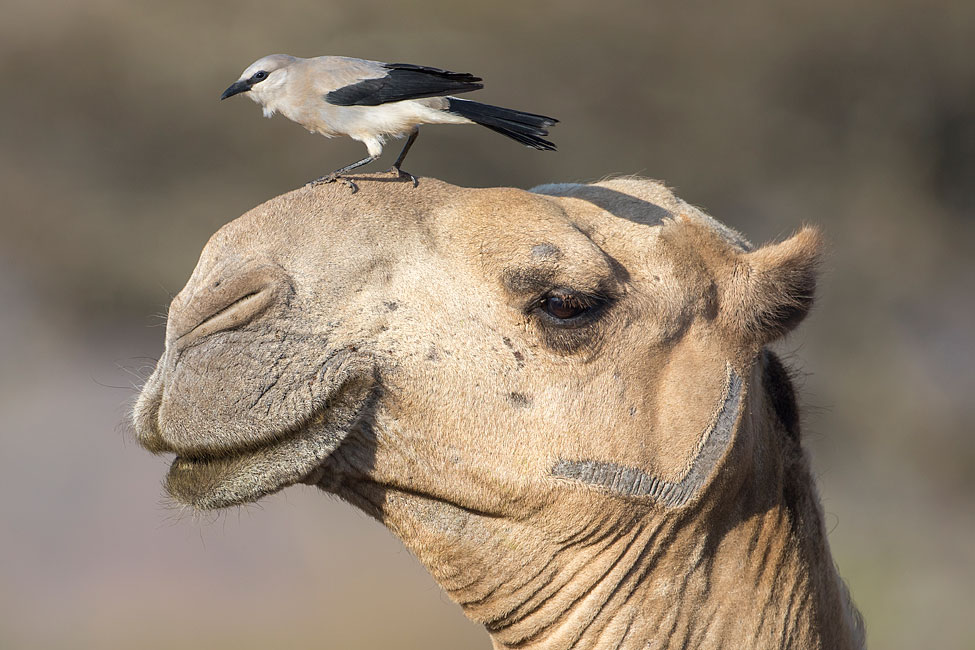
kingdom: Animalia
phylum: Chordata
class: Aves
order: Passeriformes
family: Corvidae
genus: Zavattariornis
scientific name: Zavattariornis stresemanni
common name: Stresemann's bush crow
